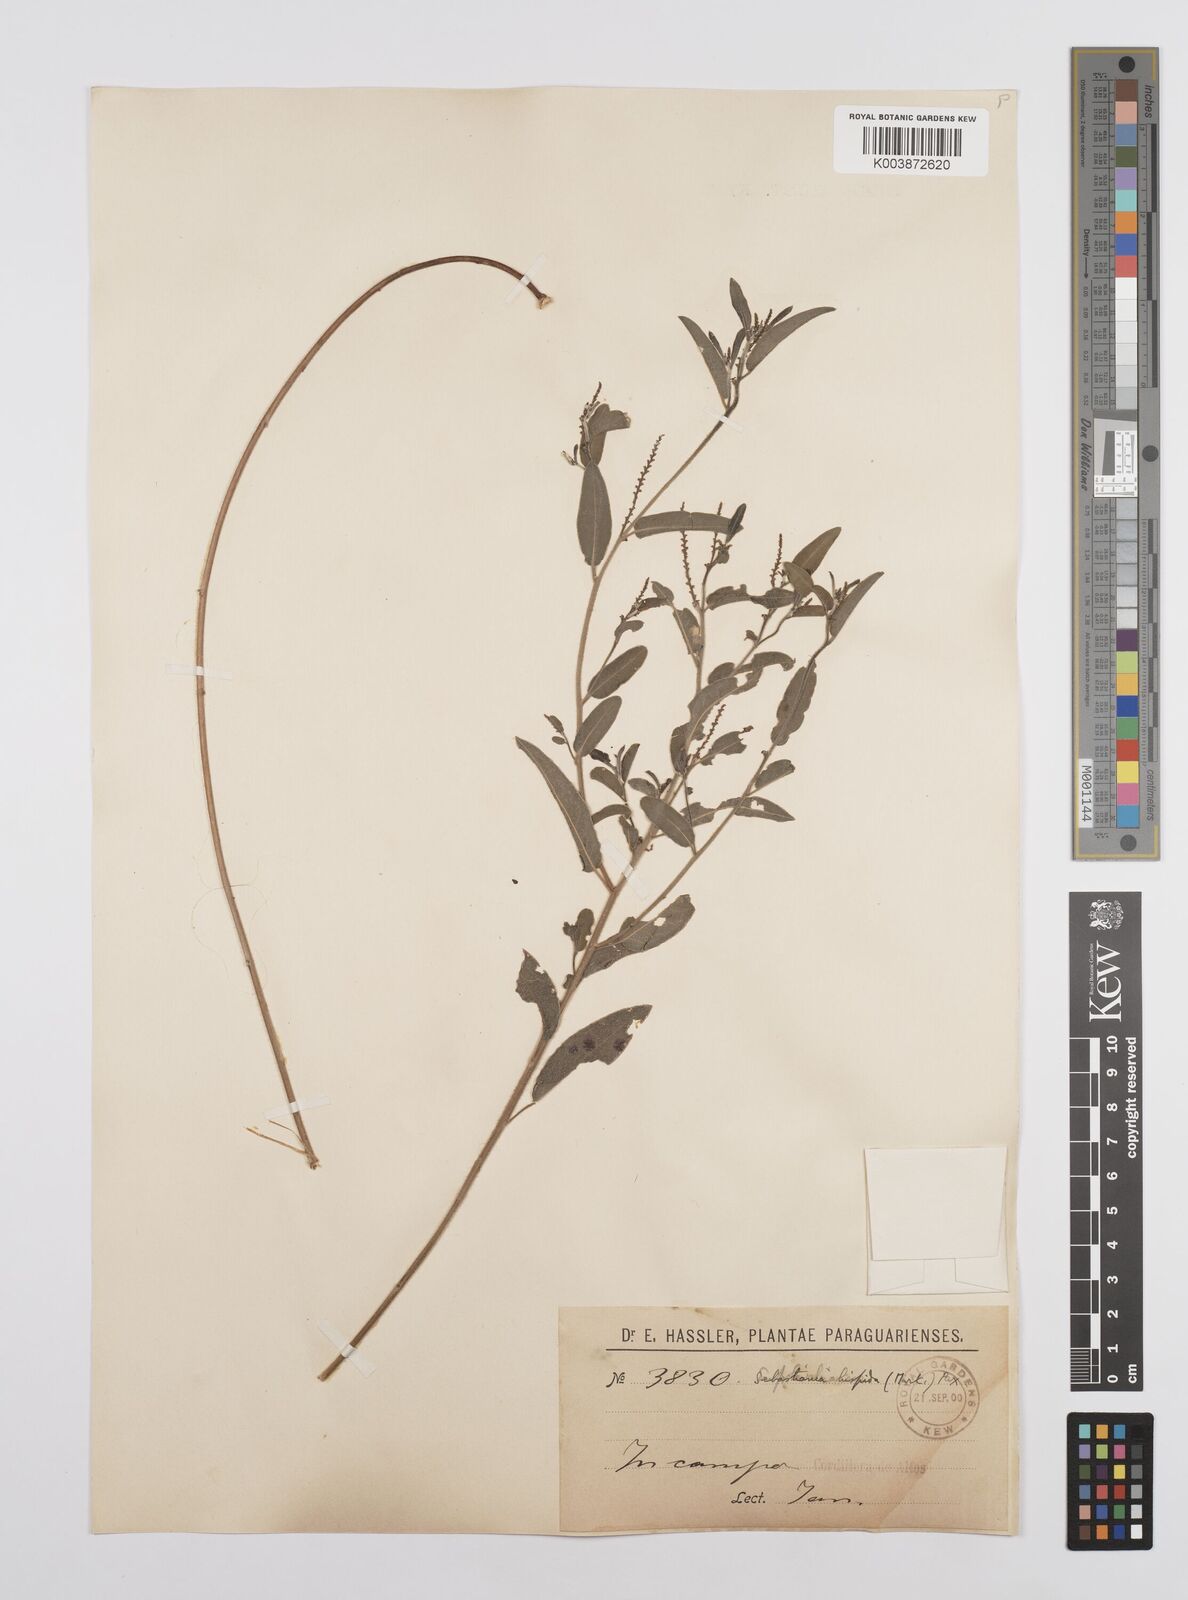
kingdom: Plantae
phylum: Tracheophyta
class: Magnoliopsida
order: Malpighiales
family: Euphorbiaceae
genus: Microstachys
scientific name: Microstachys hispida
